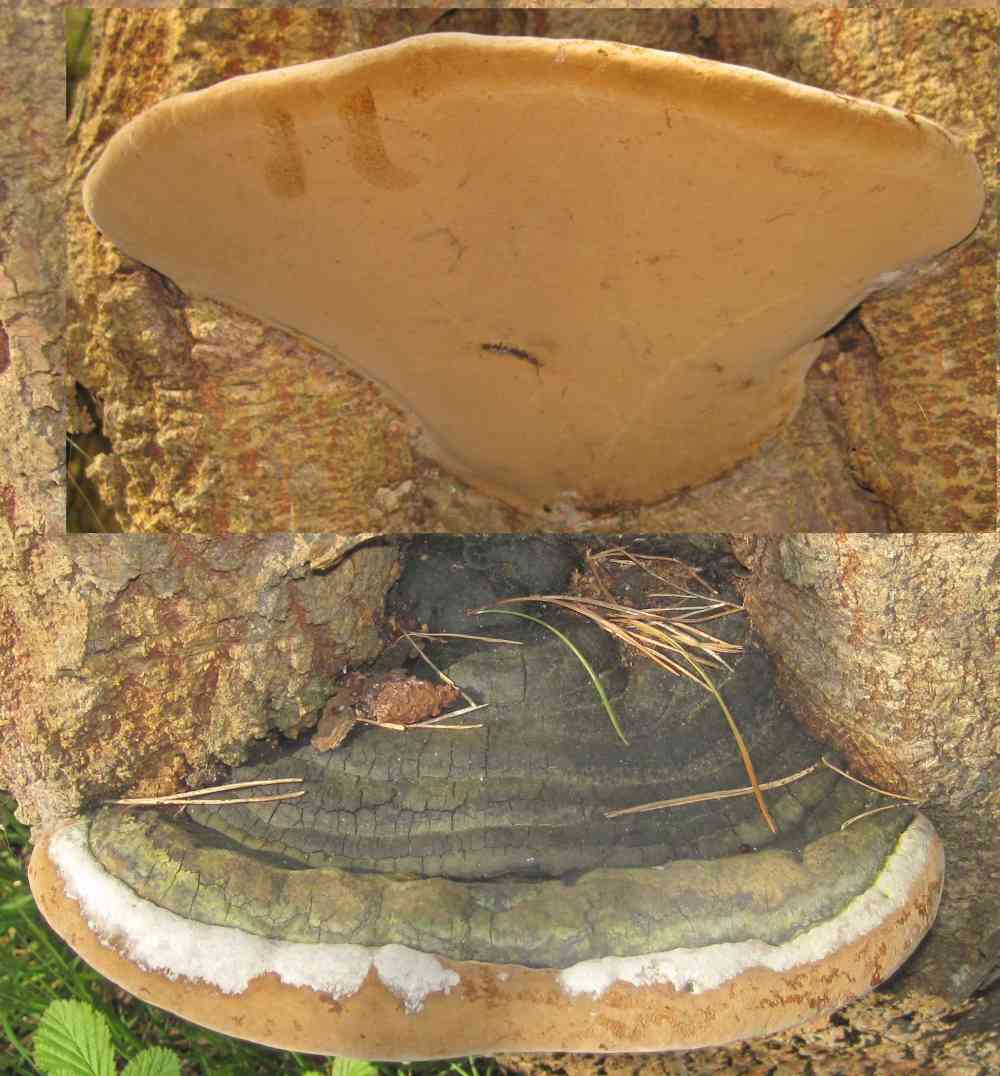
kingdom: Fungi
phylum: Basidiomycota
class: Agaricomycetes
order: Hymenochaetales
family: Hymenochaetaceae
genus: Phellinus
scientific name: Phellinus populicola
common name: poppel-ildporesvamp
